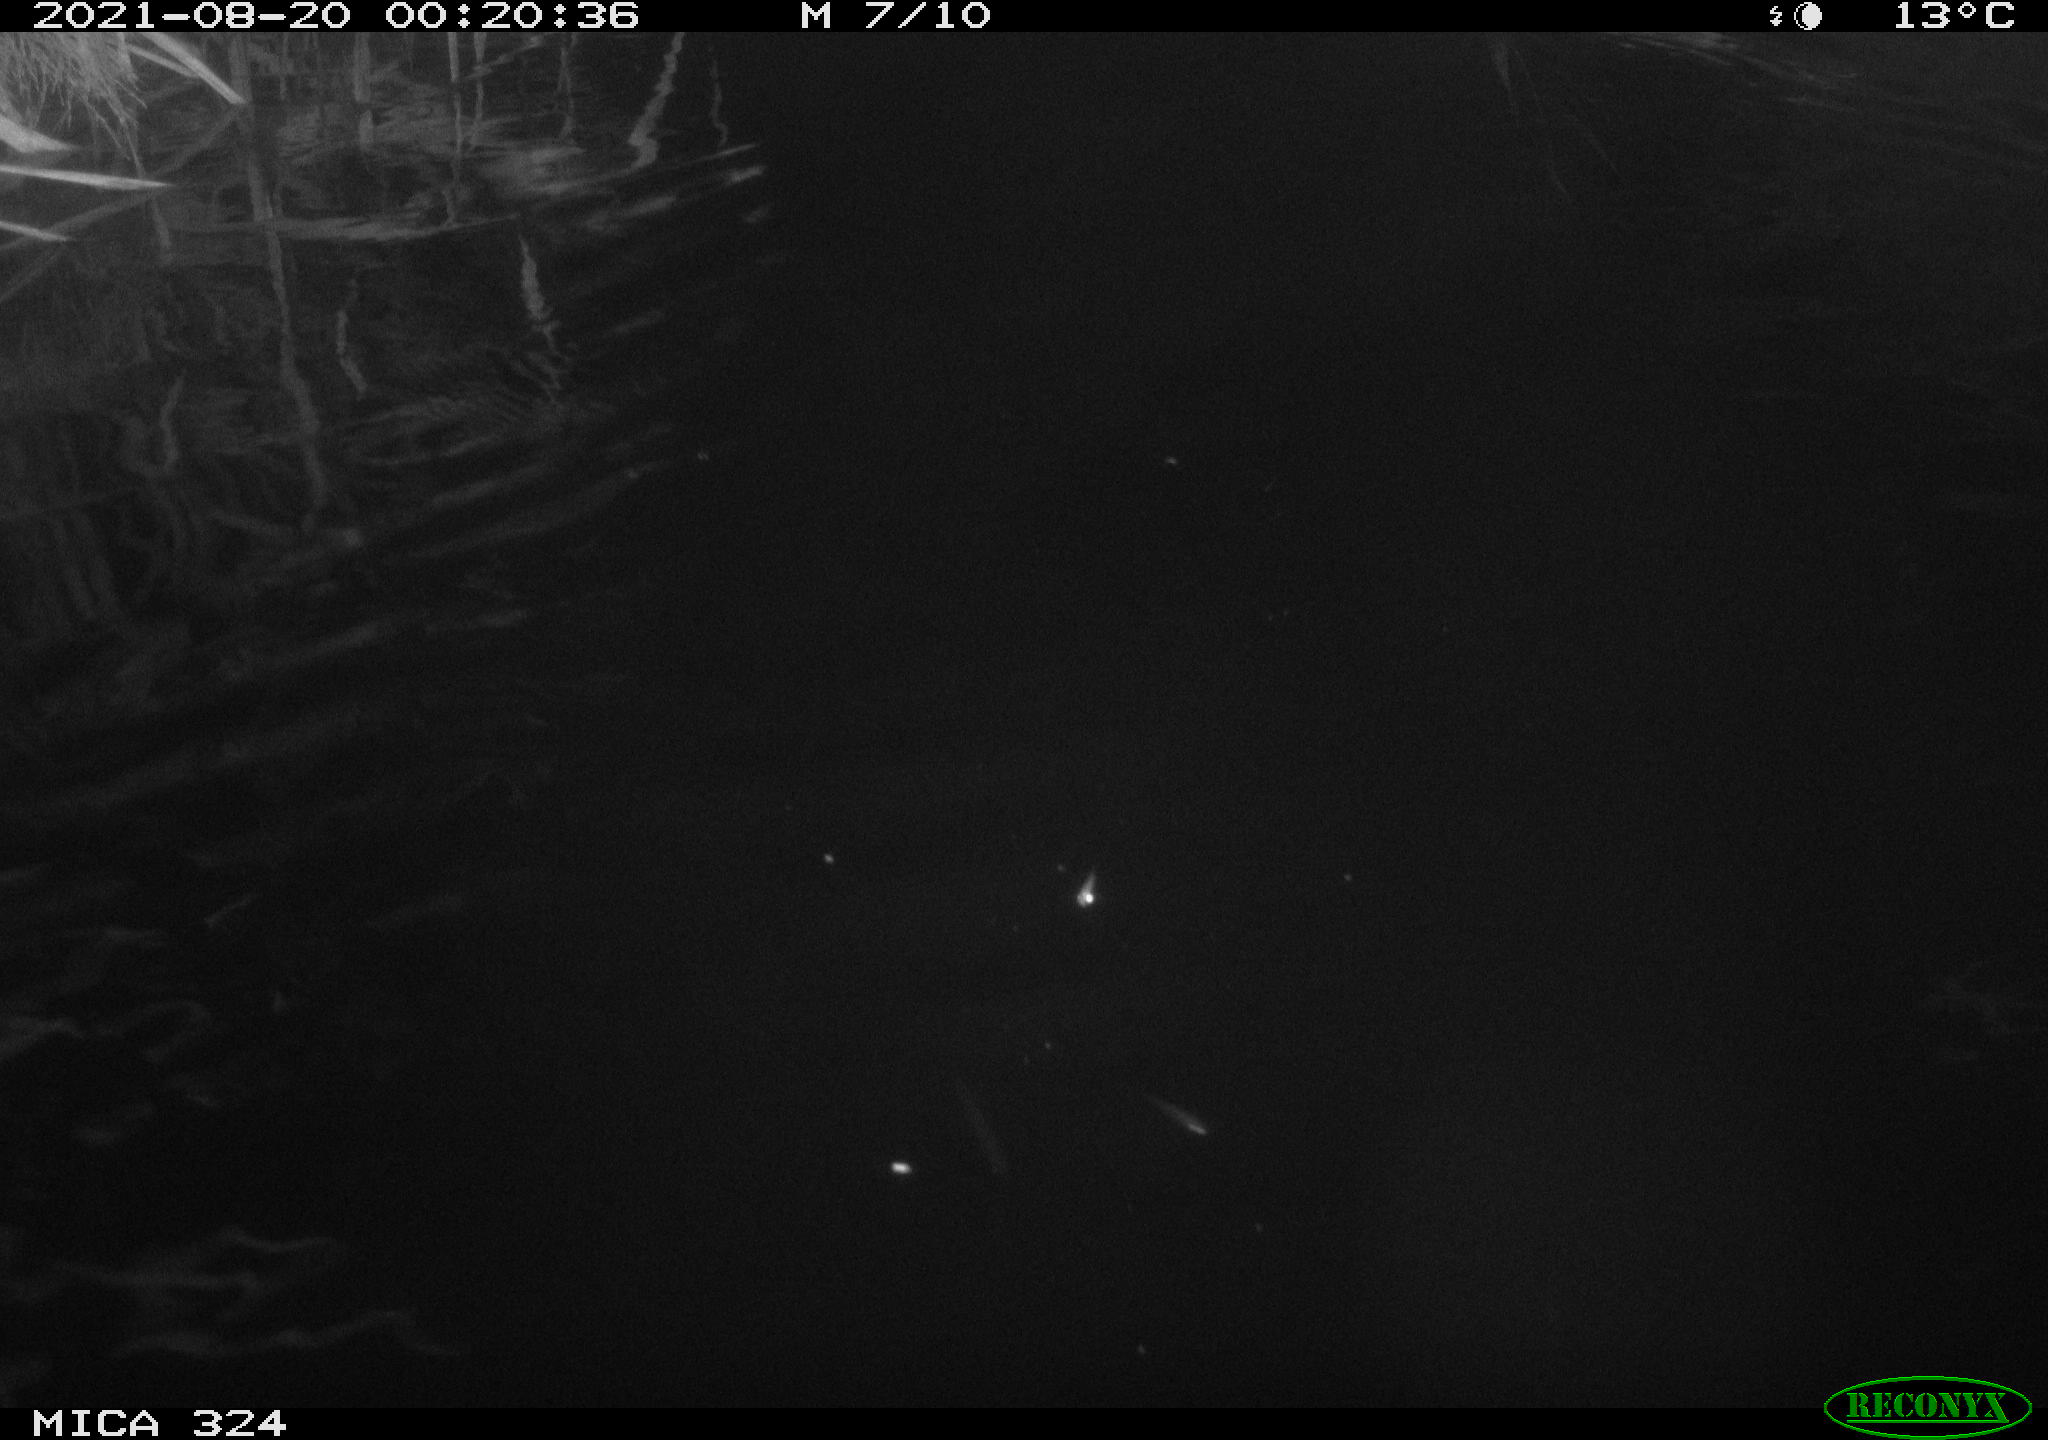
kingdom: Animalia
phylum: Chordata
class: Mammalia
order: Rodentia
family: Cricetidae
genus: Ondatra
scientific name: Ondatra zibethicus
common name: Muskrat
